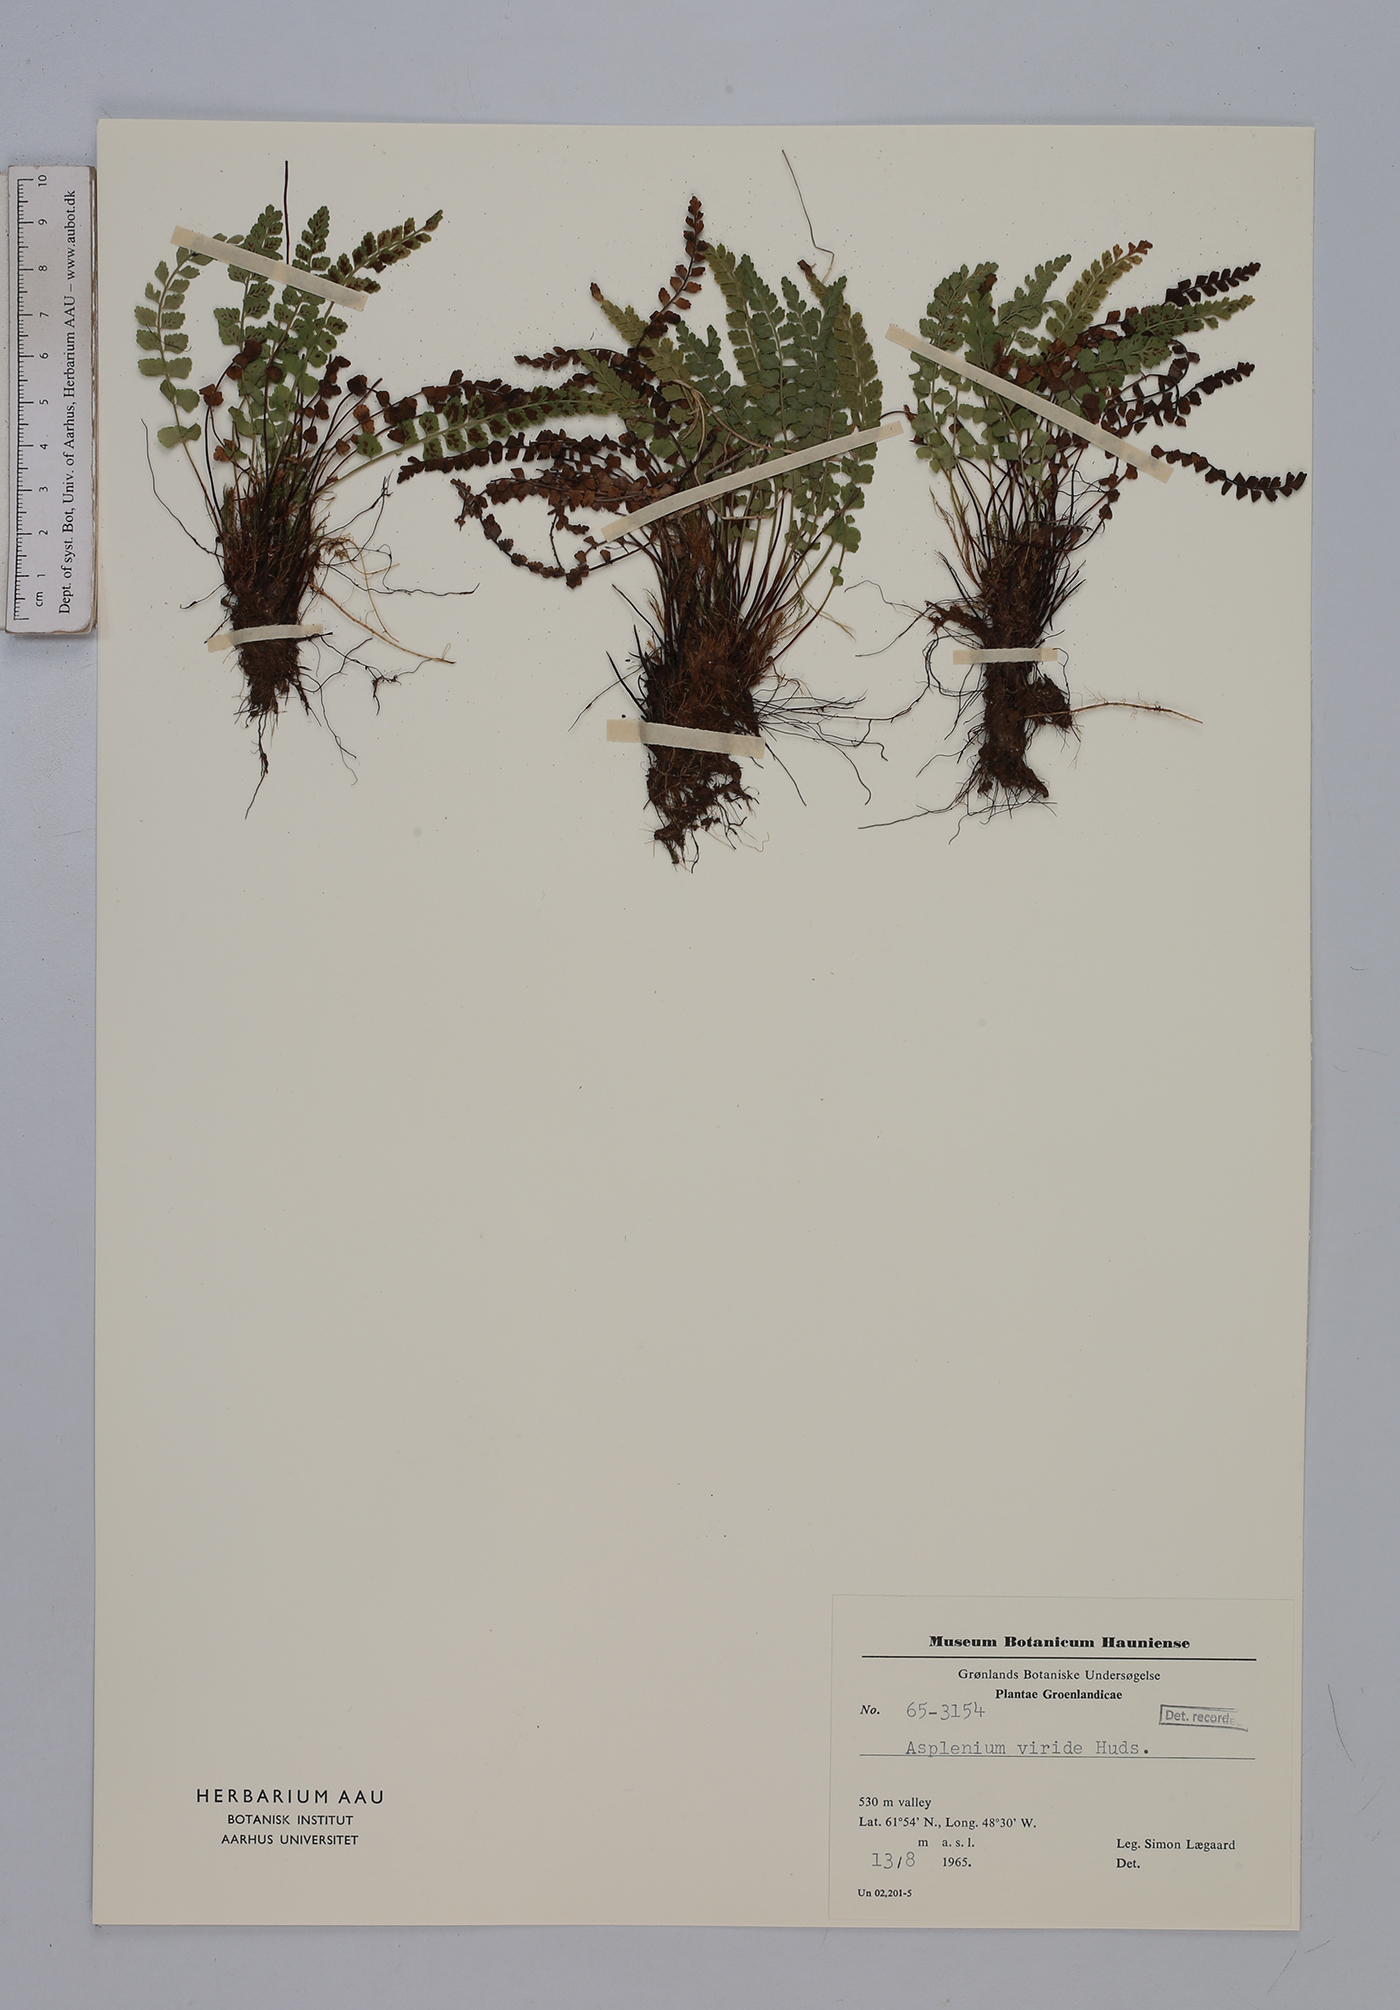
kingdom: Plantae
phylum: Tracheophyta
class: Polypodiopsida
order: Polypodiales
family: Aspleniaceae
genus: Asplenium
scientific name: Asplenium viride
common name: Green spleenwort
